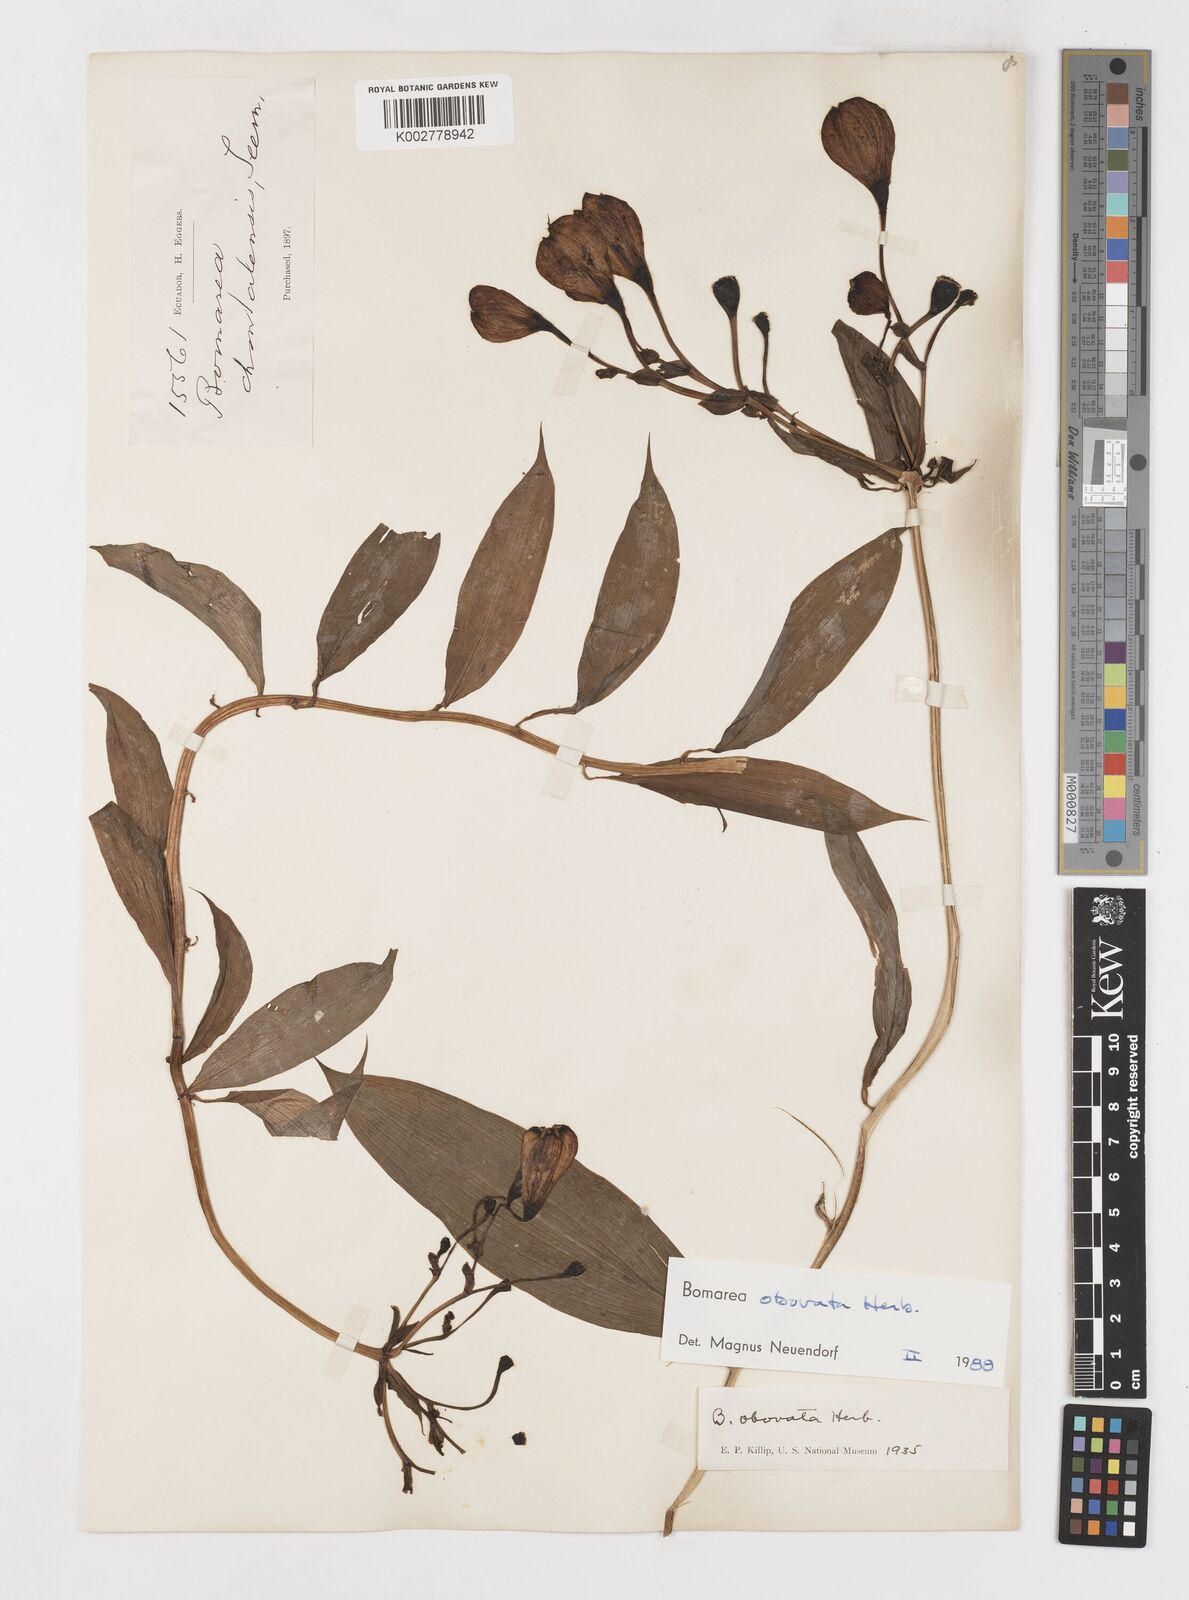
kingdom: Plantae
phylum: Tracheophyta
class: Liliopsida
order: Liliales
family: Alstroemeriaceae
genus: Bomarea
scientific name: Bomarea obovata
